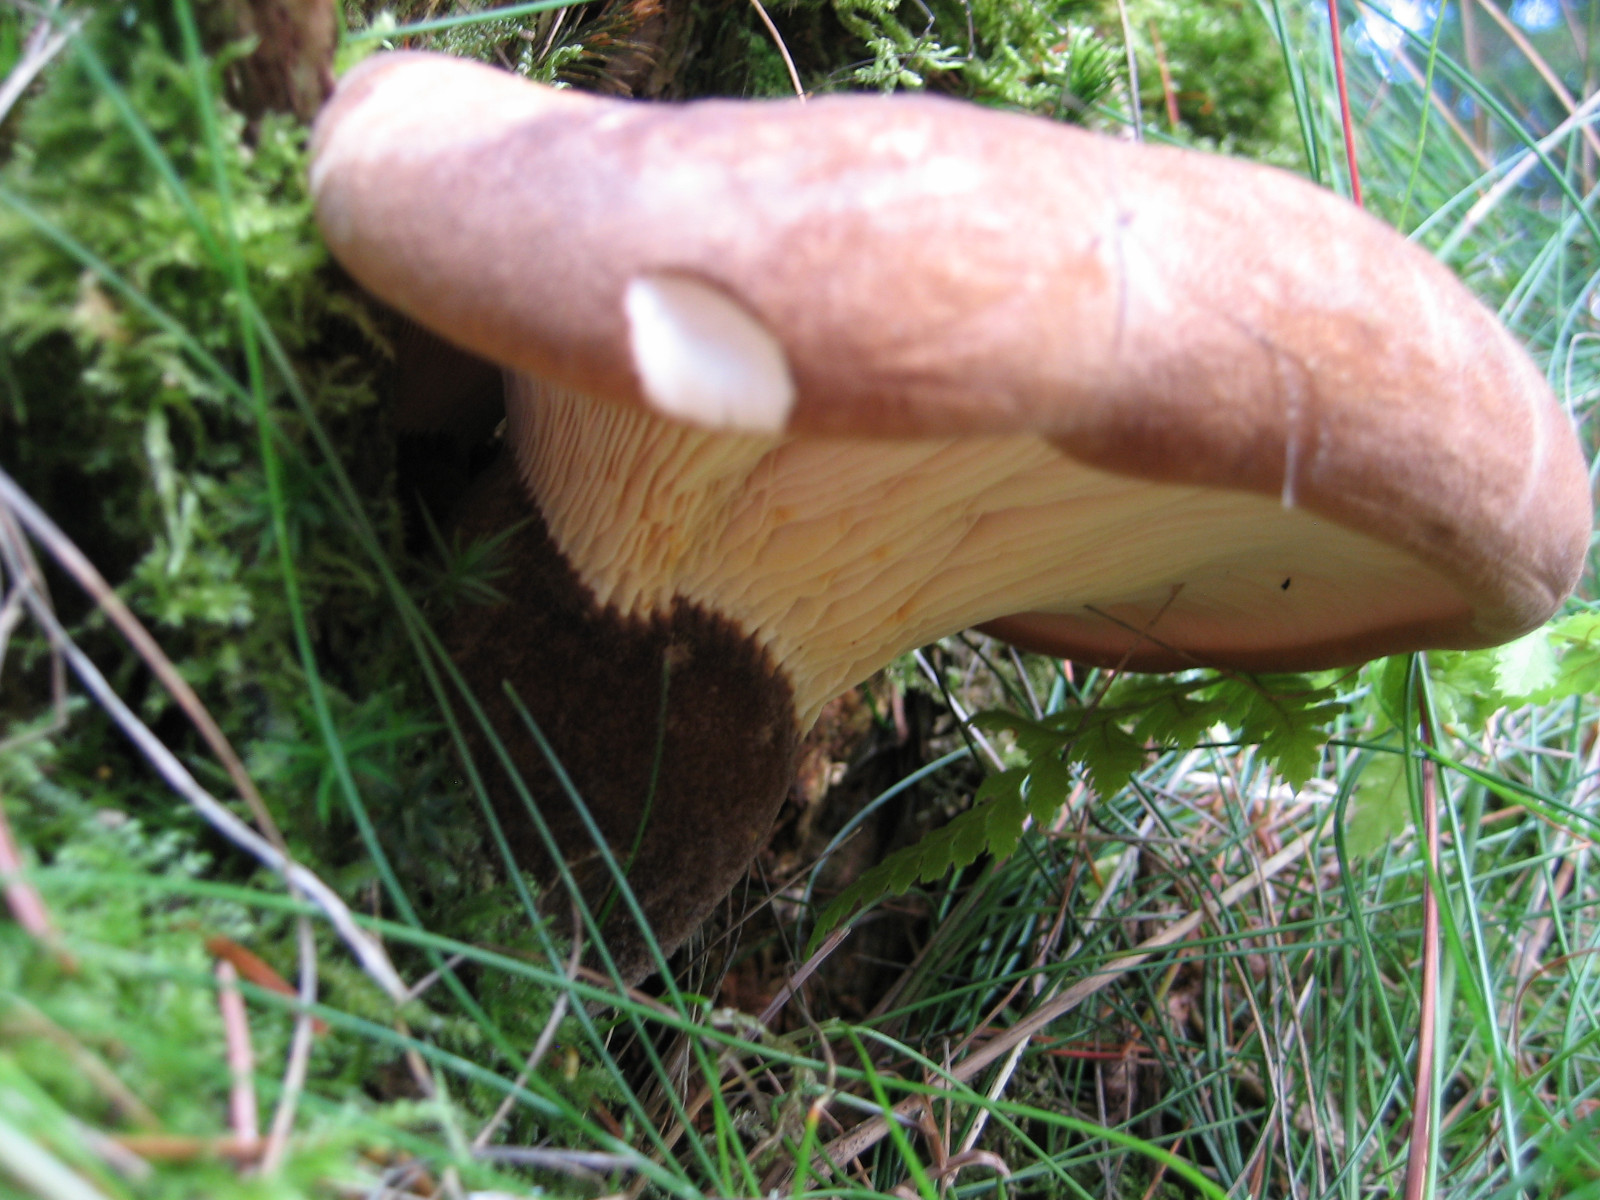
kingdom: Fungi
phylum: Basidiomycota
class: Agaricomycetes
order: Boletales
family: Tapinellaceae
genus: Tapinella
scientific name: Tapinella atrotomentosa
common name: sortfiltet viftesvamp
